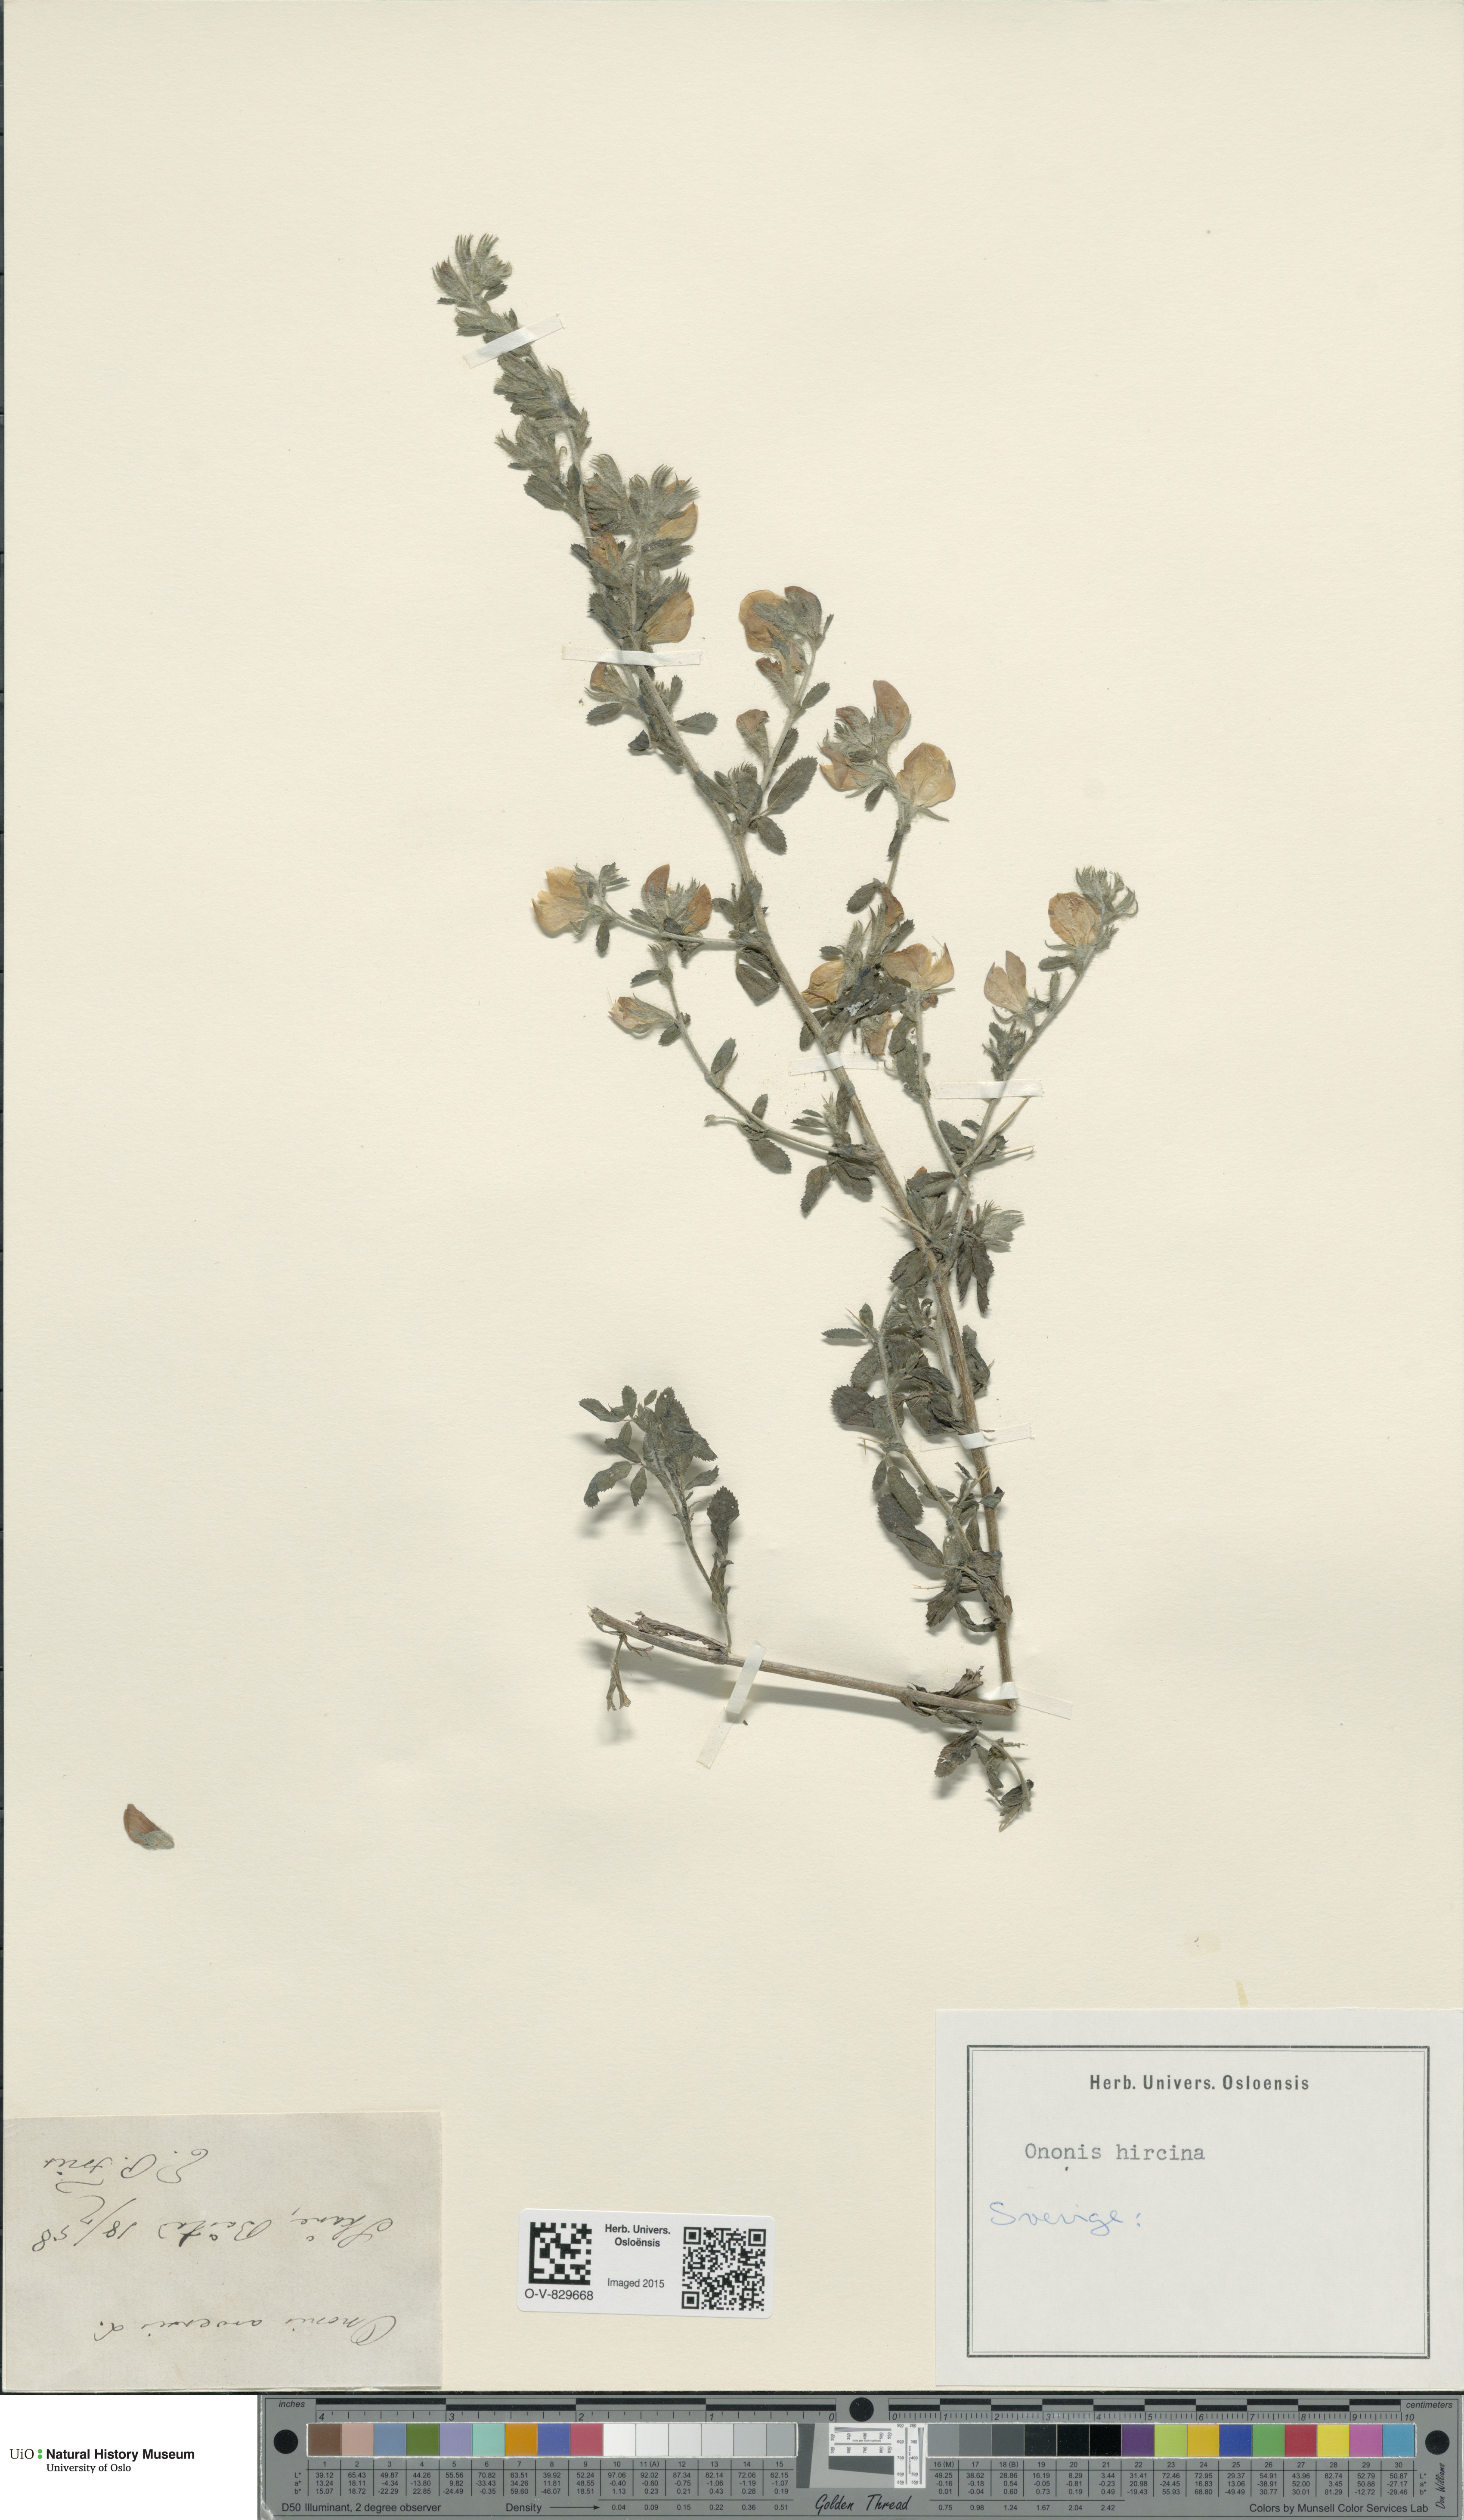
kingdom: Plantae
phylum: Tracheophyta
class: Magnoliopsida
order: Fabales
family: Fabaceae
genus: Ononis
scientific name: Ononis arvensis
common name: Field restharrow
